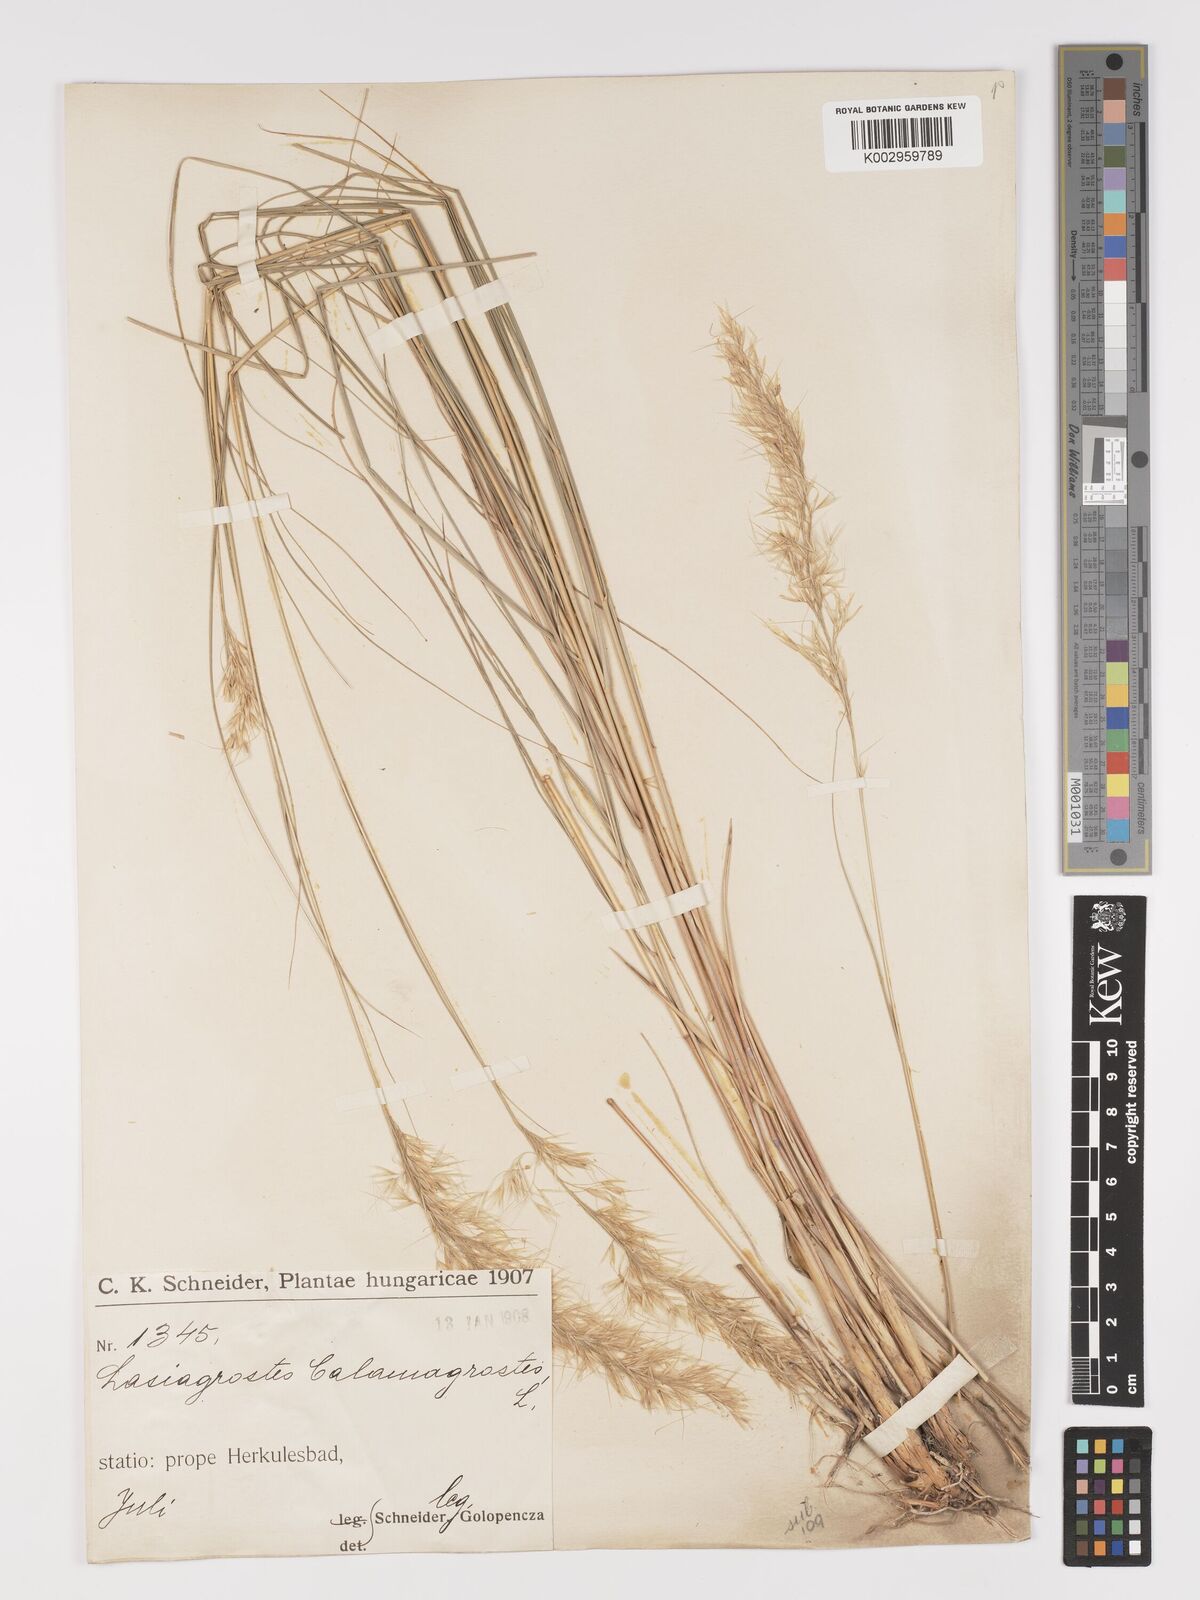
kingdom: Plantae
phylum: Tracheophyta
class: Liliopsida
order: Poales
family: Poaceae
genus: Achnatherum
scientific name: Achnatherum calamagrostis
